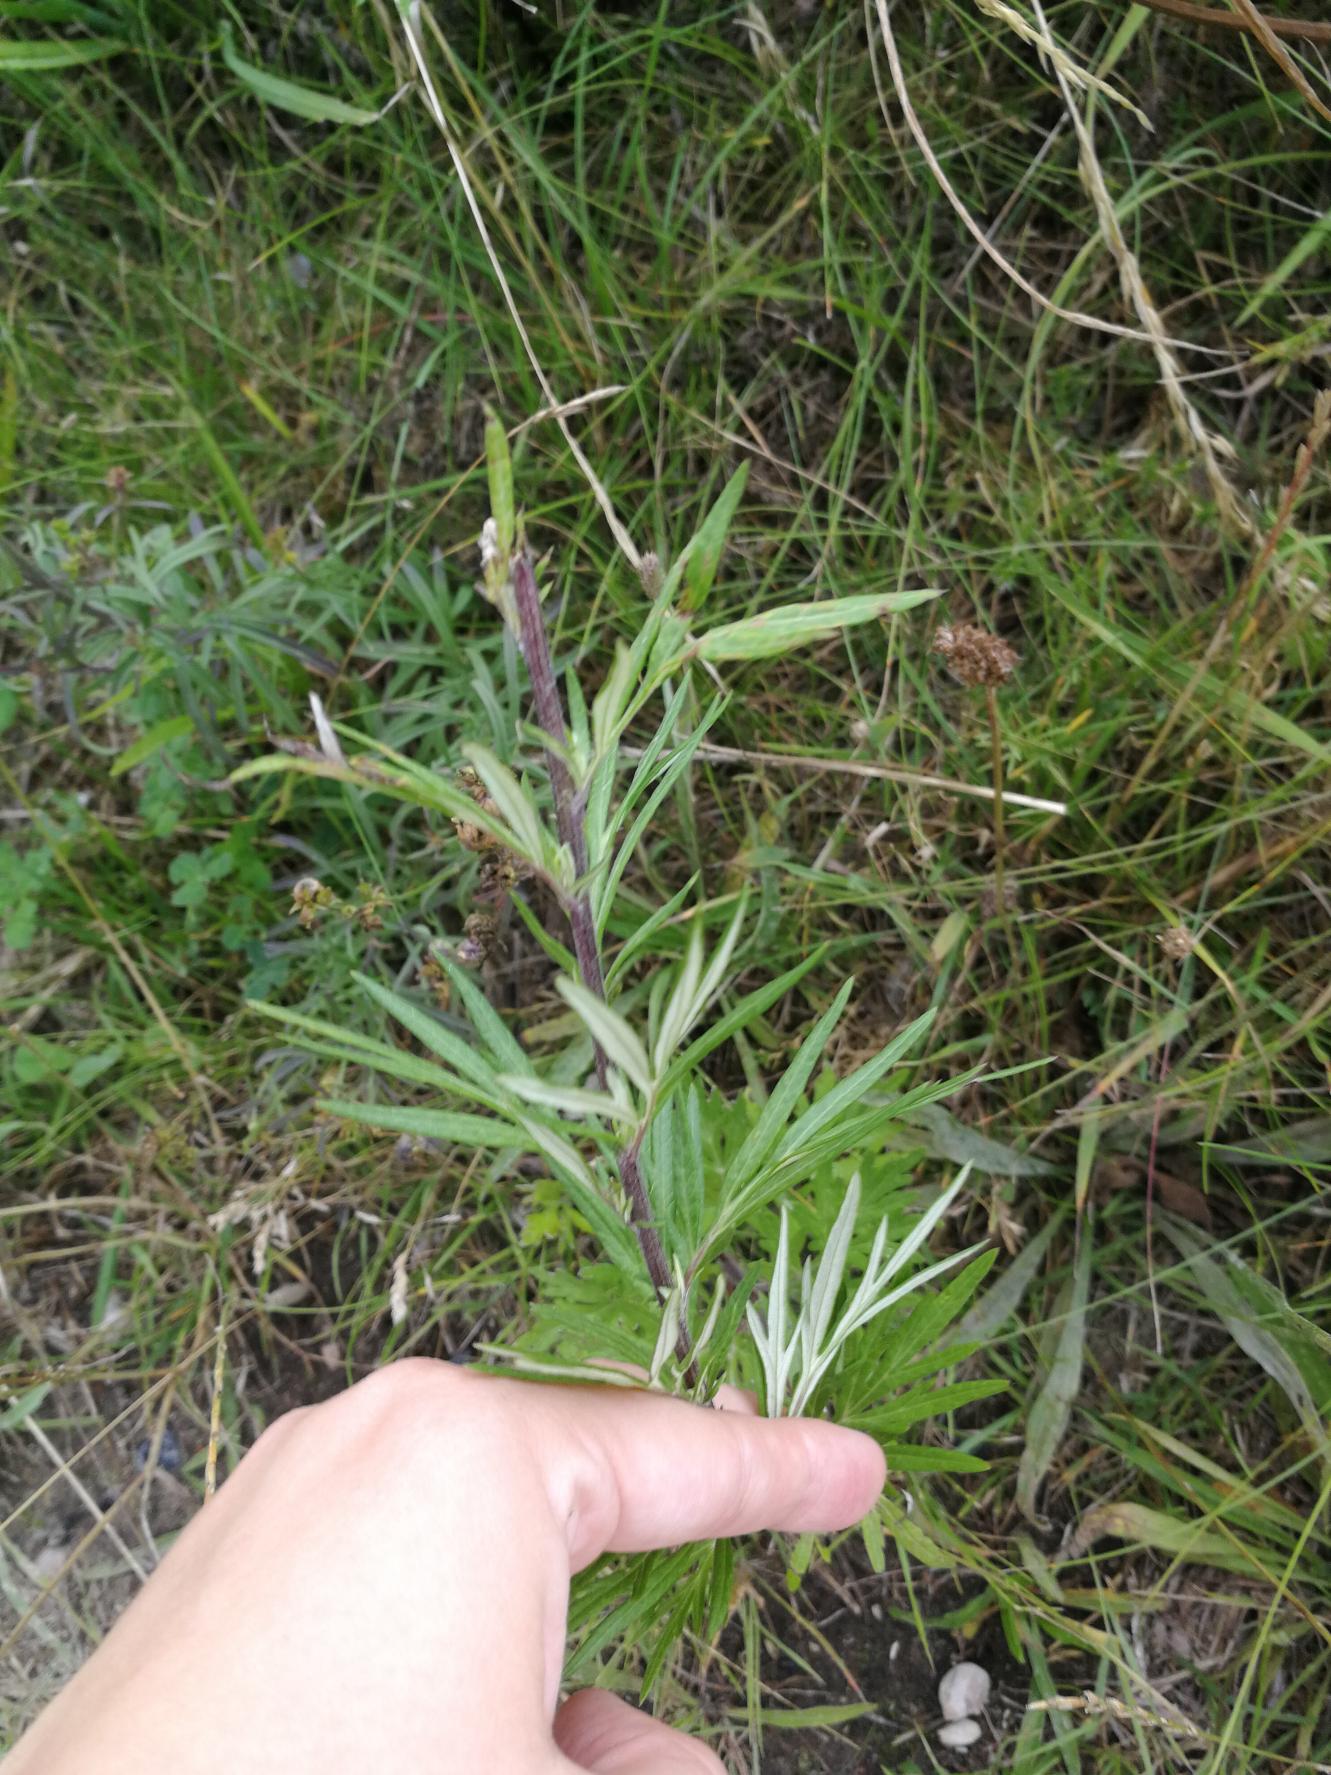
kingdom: Plantae
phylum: Tracheophyta
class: Magnoliopsida
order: Asterales
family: Asteraceae
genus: Artemisia
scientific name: Artemisia vulgaris
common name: Grå-bynke
